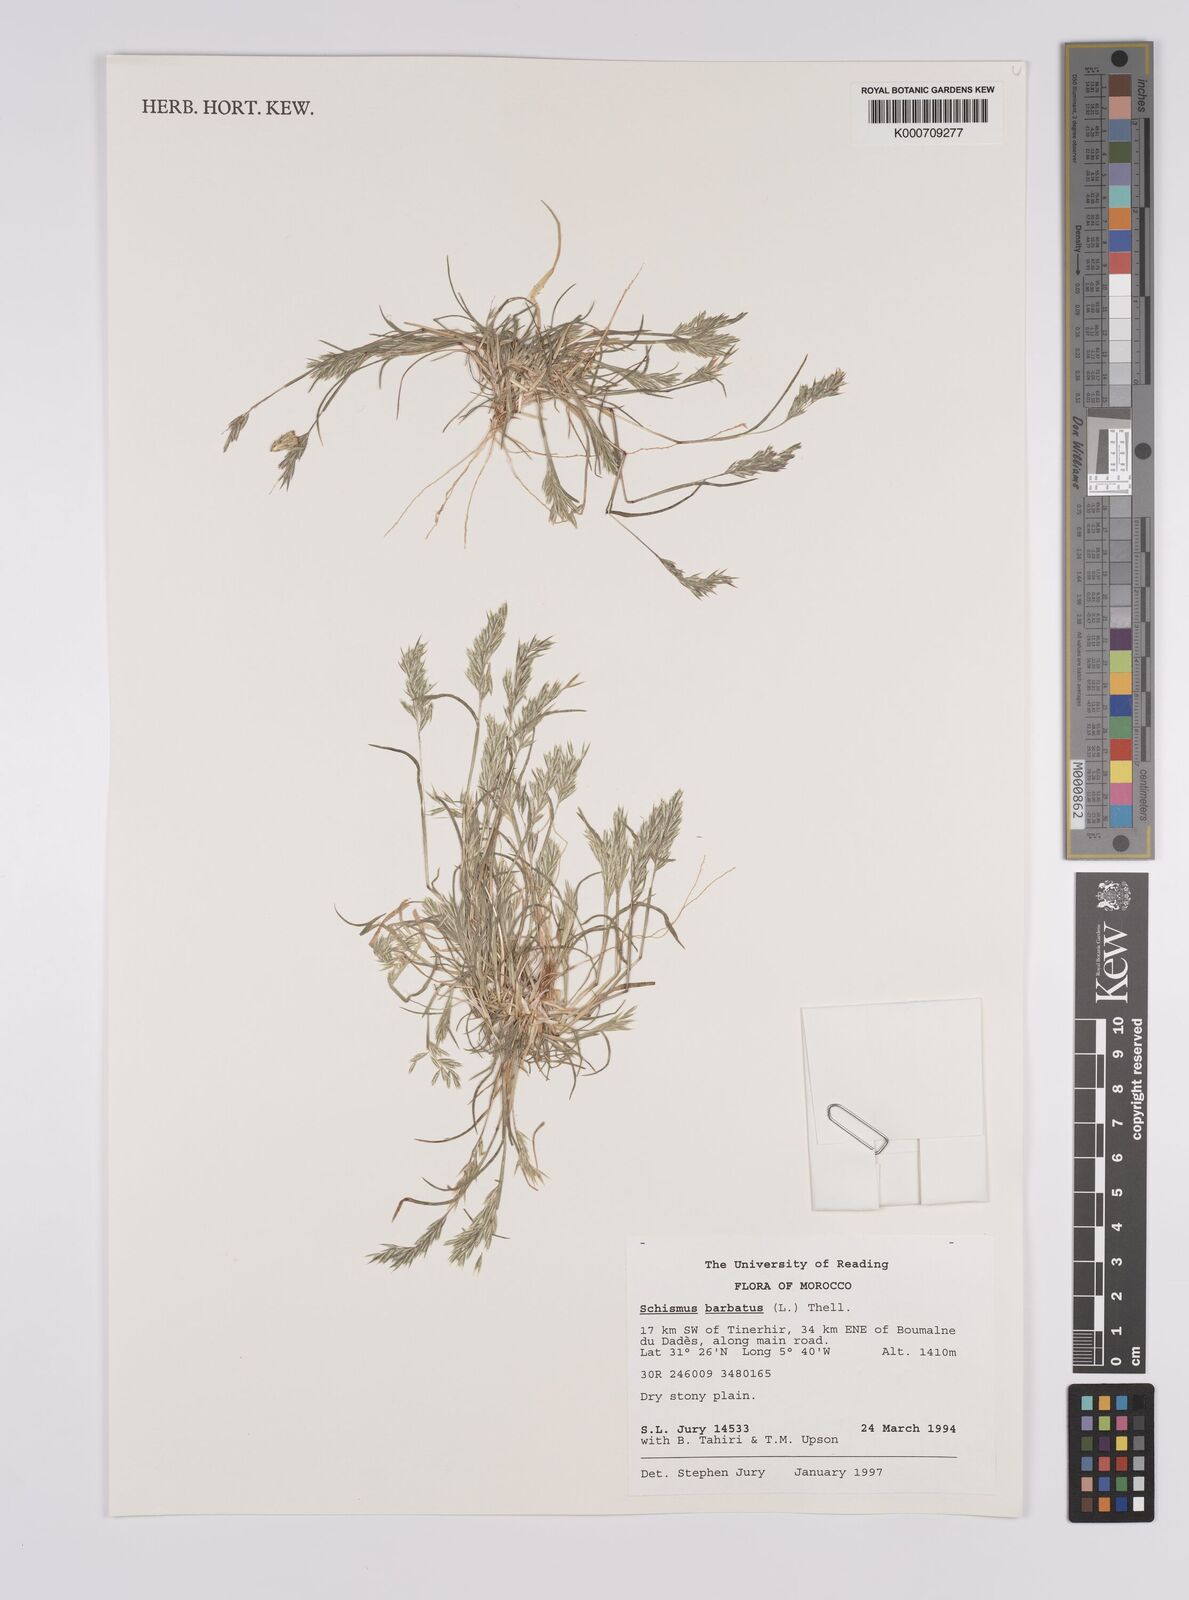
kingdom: Plantae
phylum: Tracheophyta
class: Liliopsida
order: Poales
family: Poaceae
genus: Schismus
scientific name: Schismus barbatus
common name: Kelch-grass
